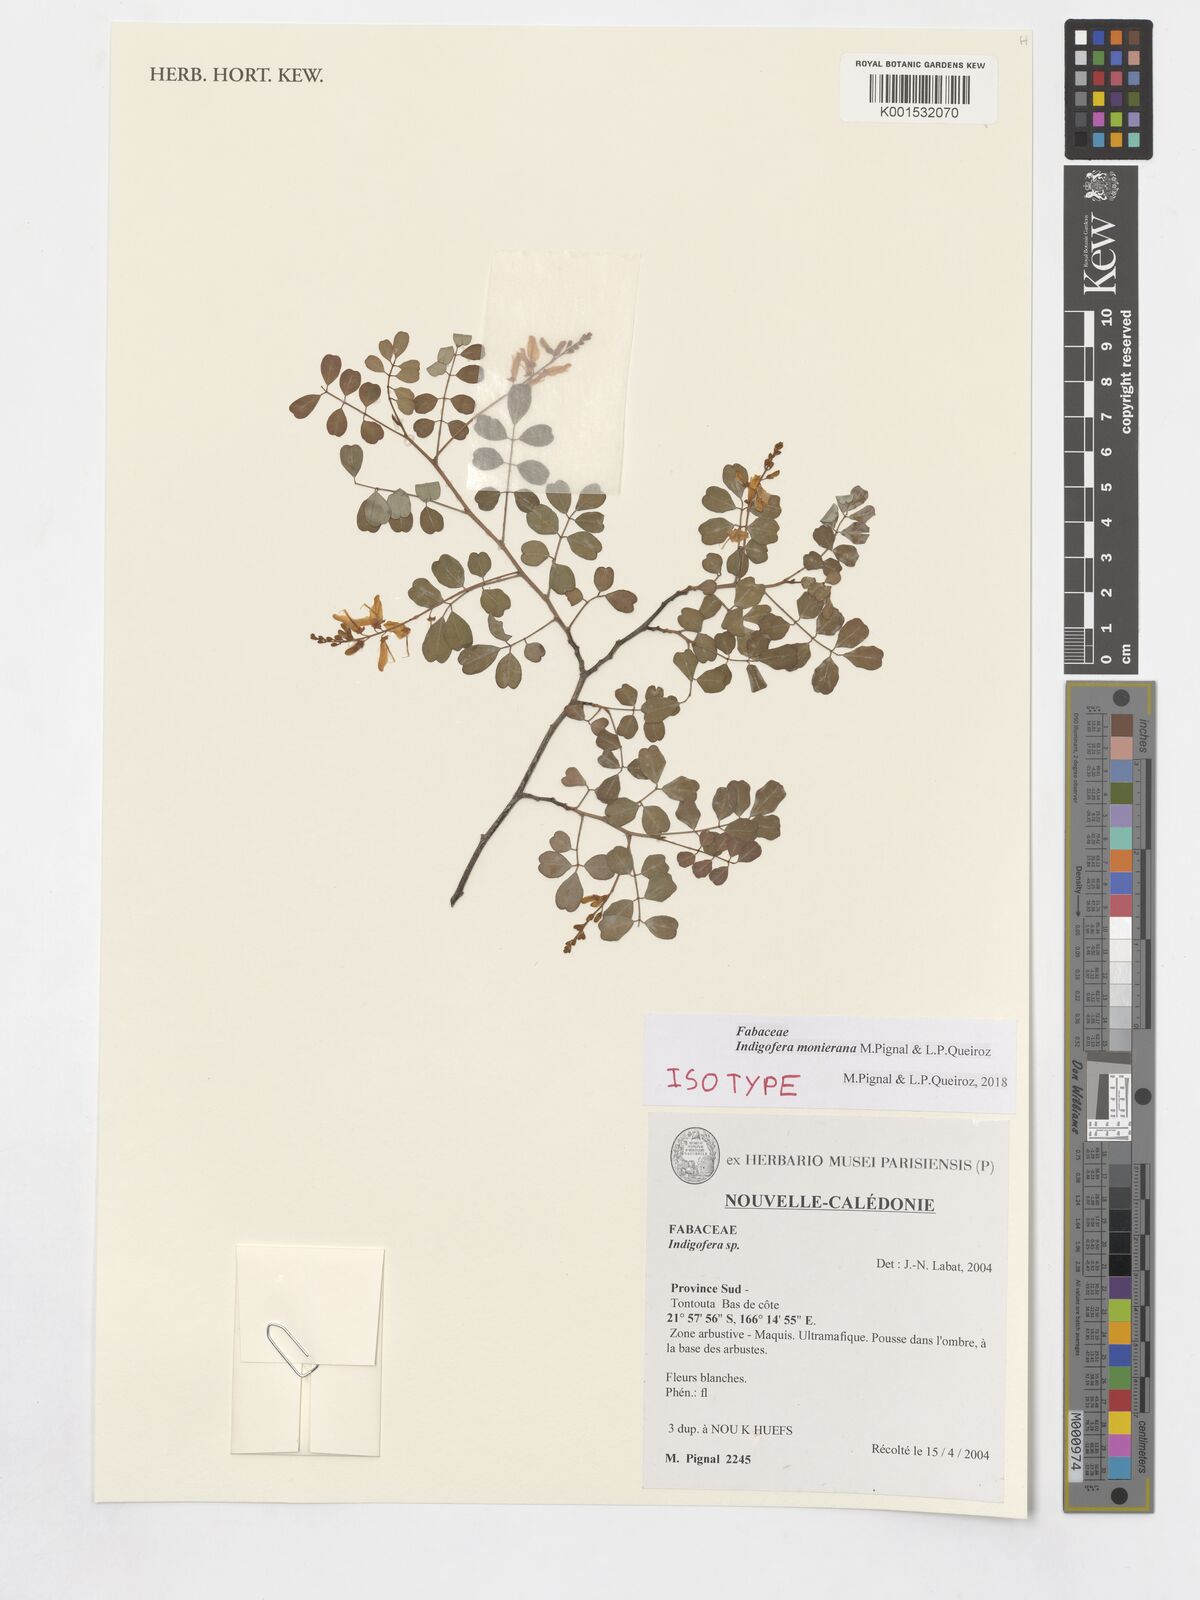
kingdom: Plantae
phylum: Tracheophyta
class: Magnoliopsida
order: Fabales
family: Fabaceae
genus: Indigofera
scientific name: Indigofera monieriana
